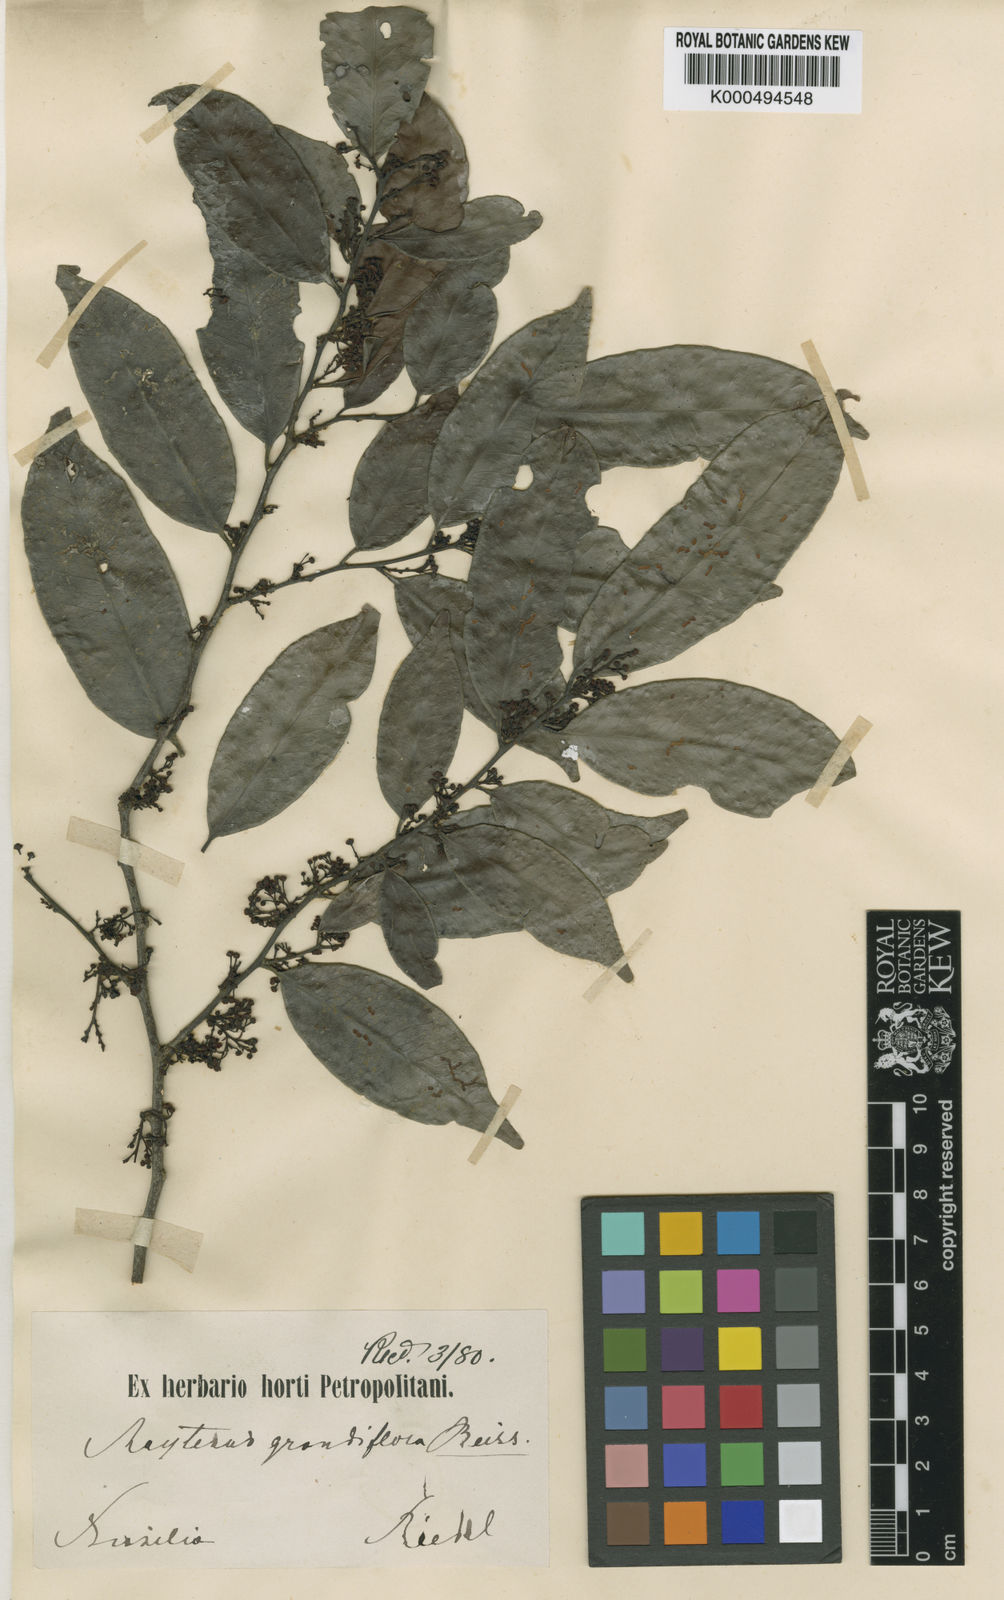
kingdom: Plantae
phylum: Tracheophyta
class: Magnoliopsida
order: Celastrales
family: Celastraceae
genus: Monteverdia
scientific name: Monteverdia communis
